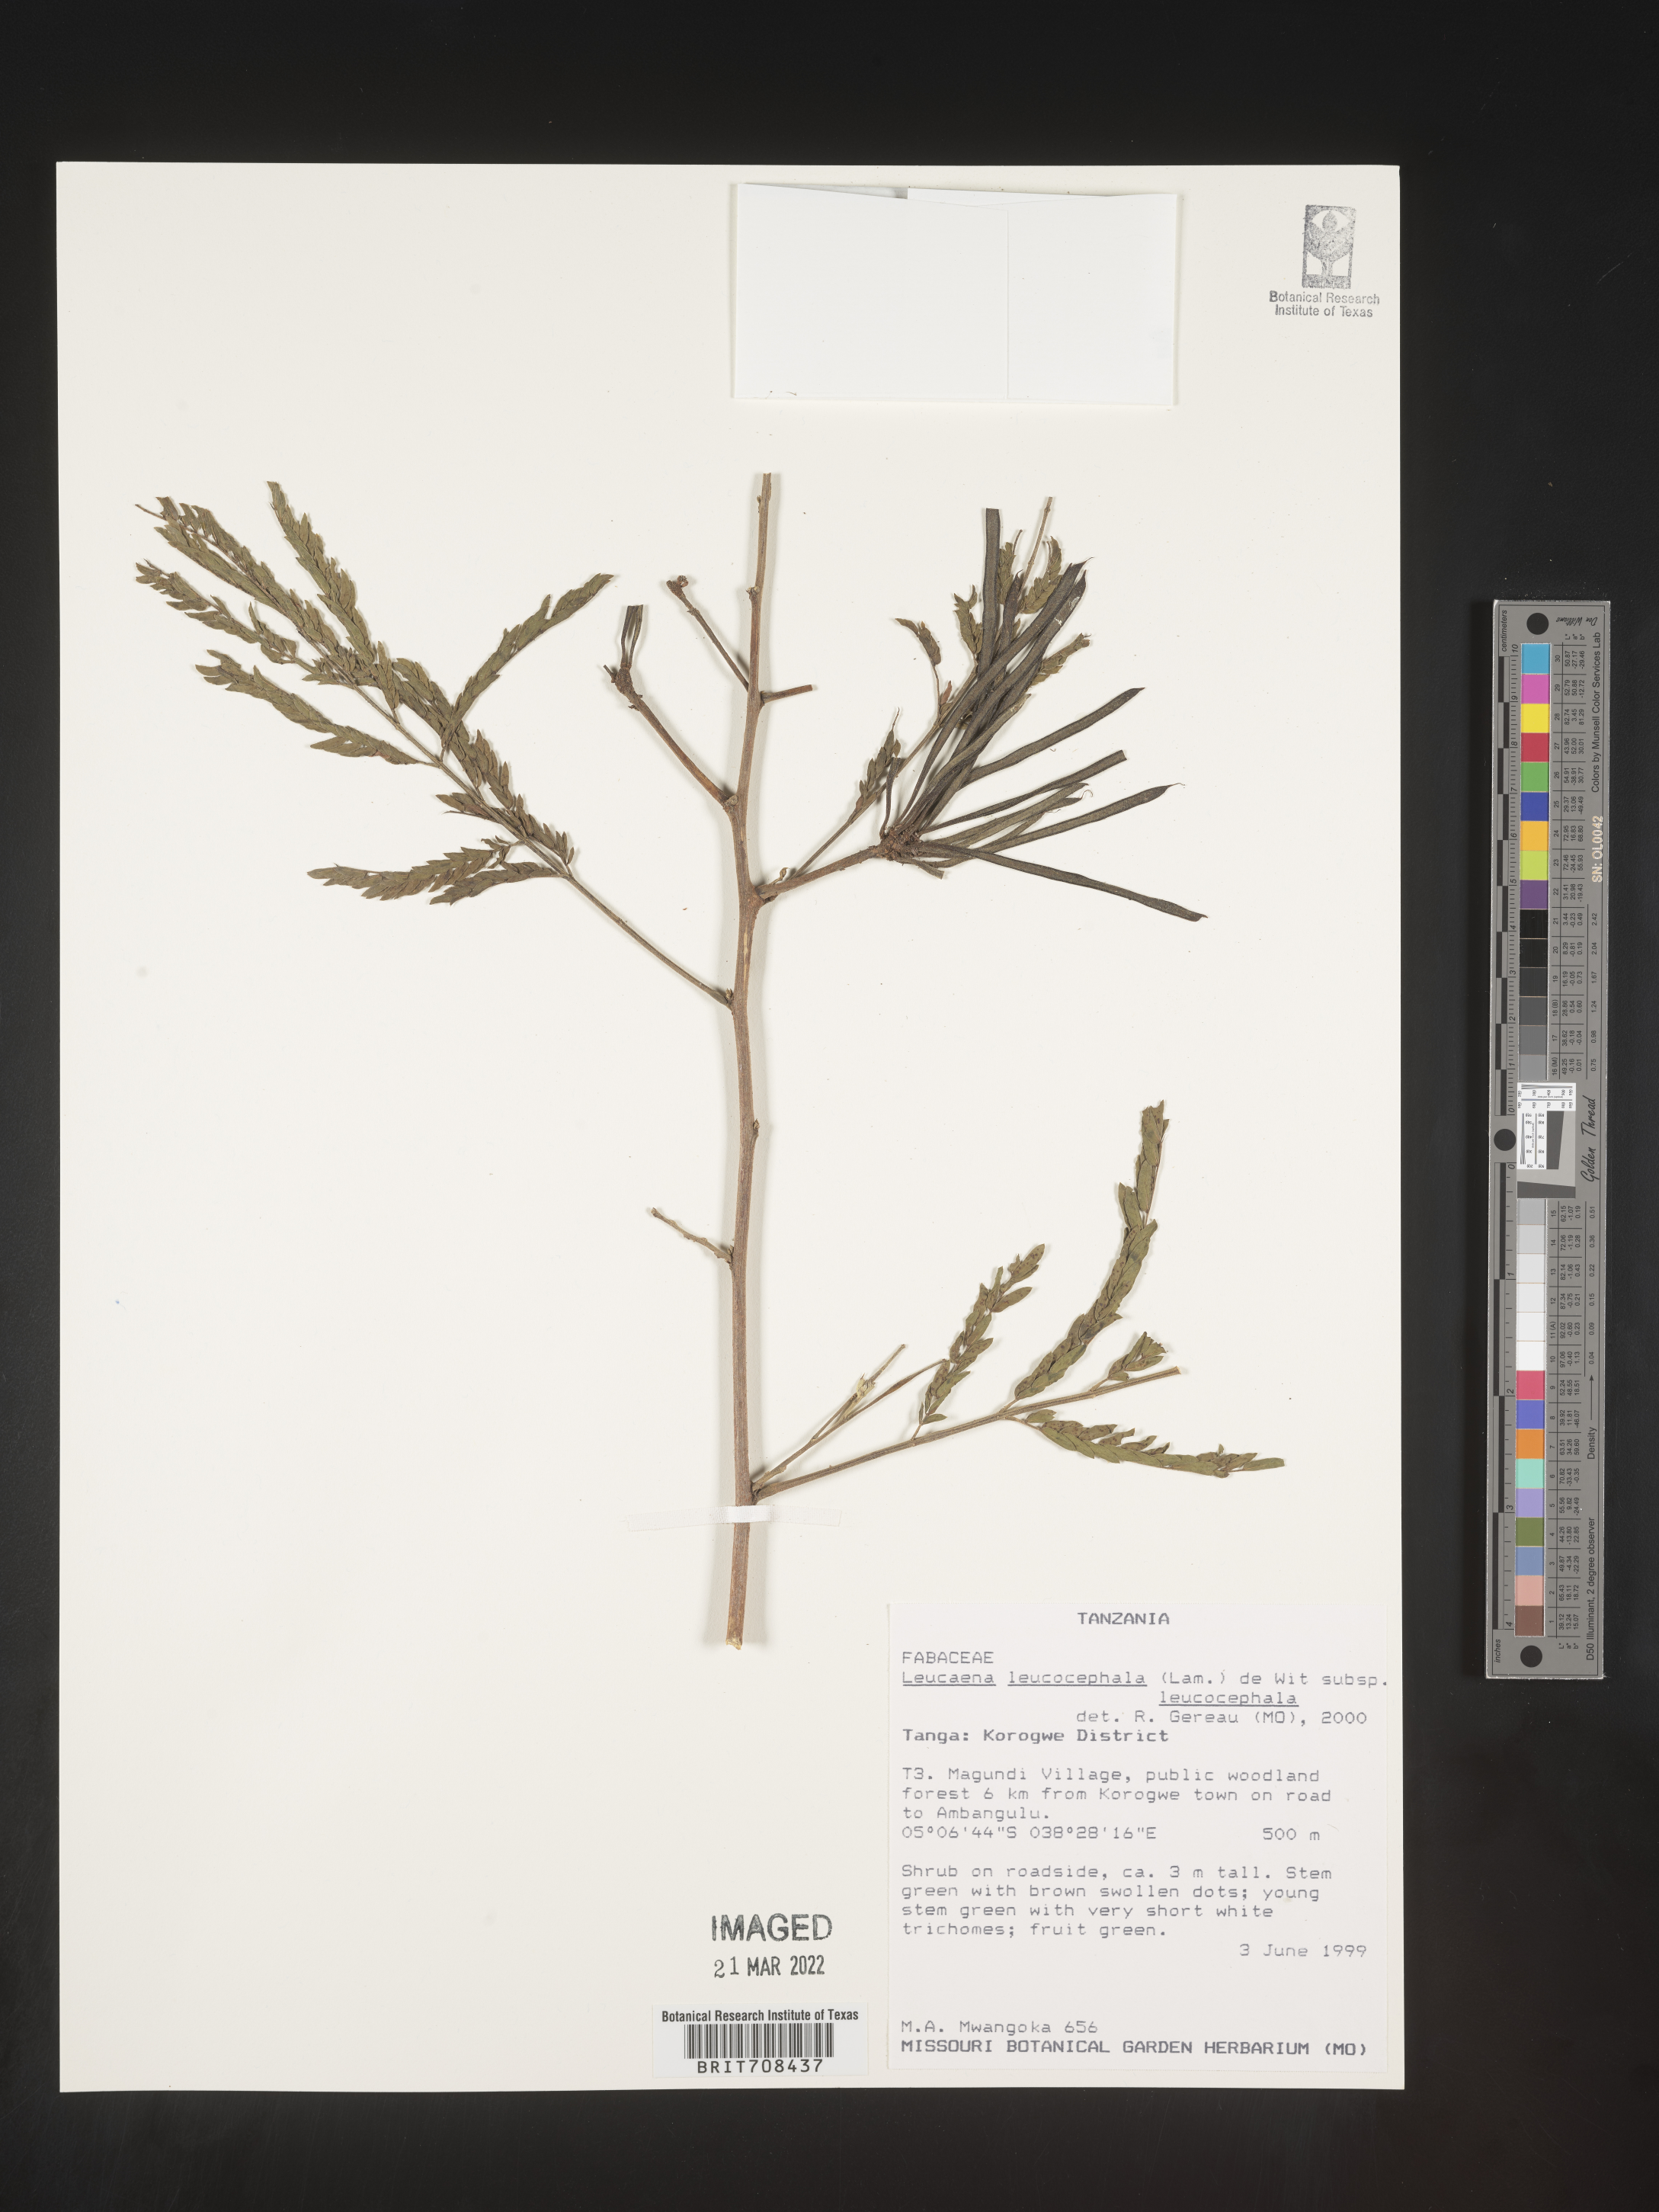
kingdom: Plantae
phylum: Tracheophyta
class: Magnoliopsida
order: Fabales
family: Fabaceae
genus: Leucaena
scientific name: Leucaena
